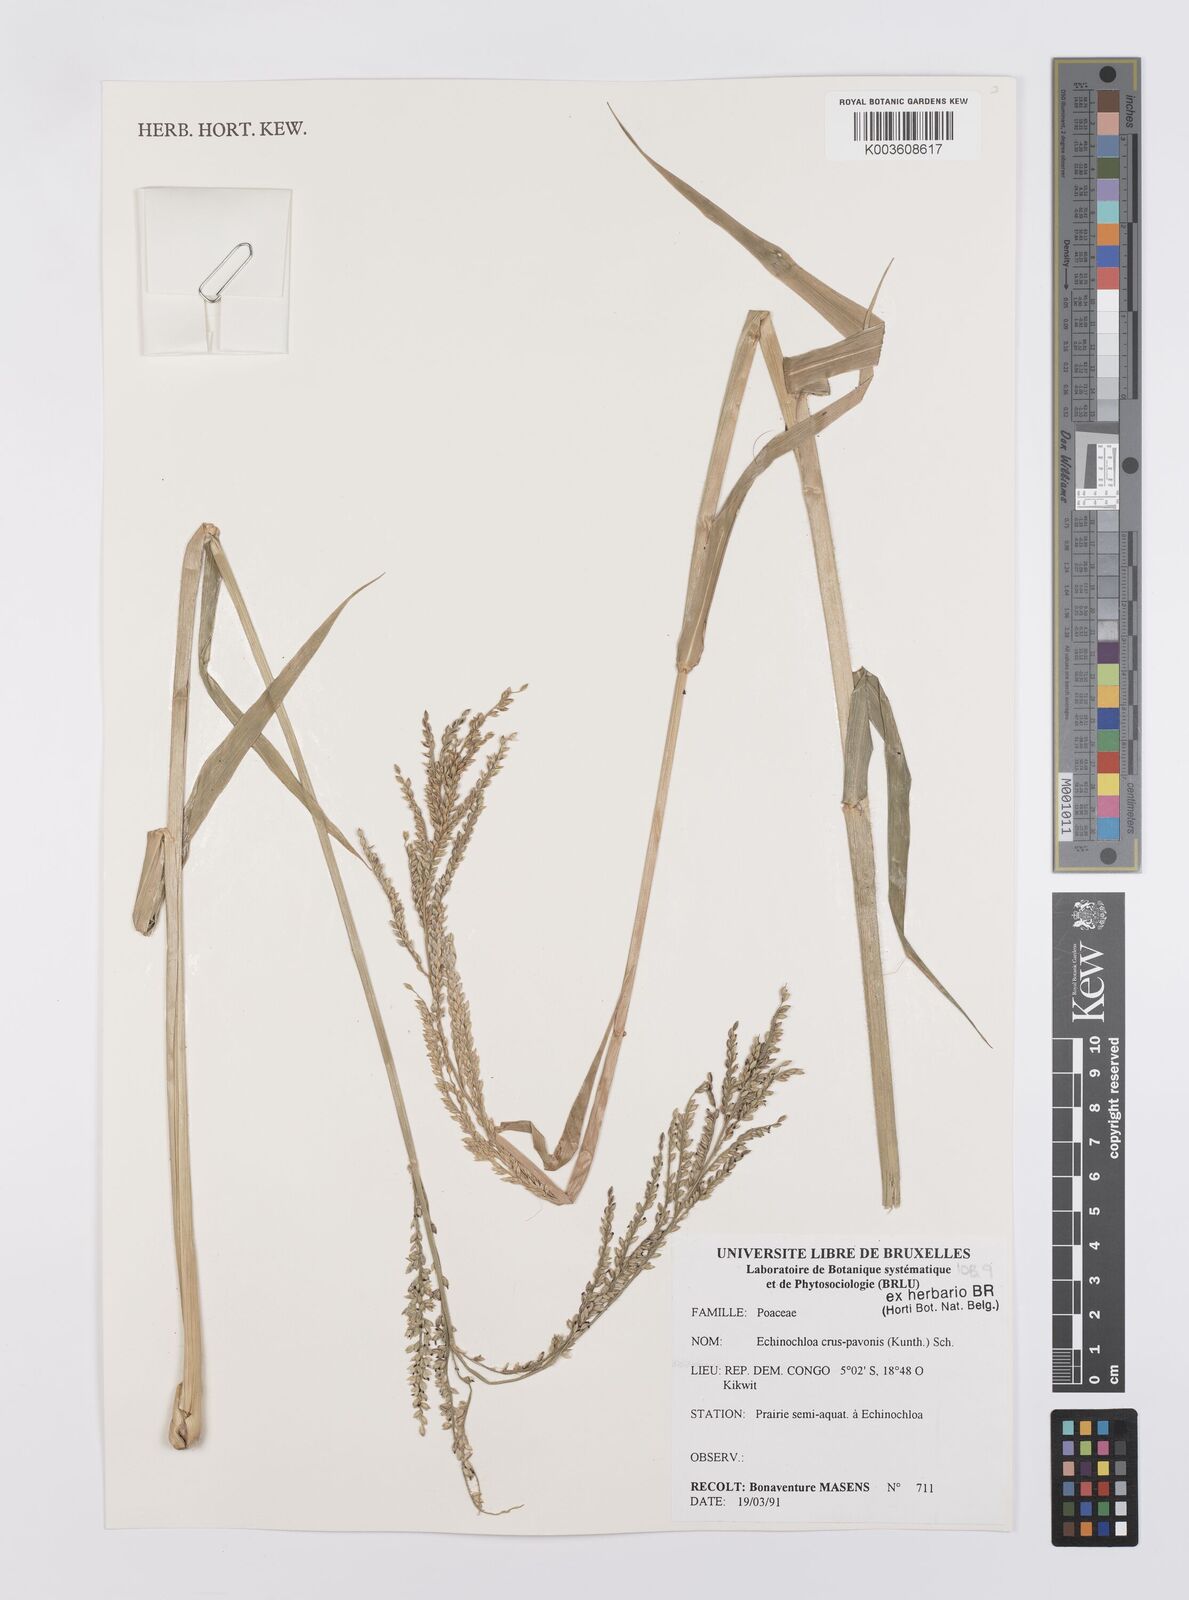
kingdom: Plantae
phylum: Tracheophyta
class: Liliopsida
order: Poales
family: Poaceae
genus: Echinochloa
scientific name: Echinochloa crus-pavonis
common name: Gulf cockspur grass
